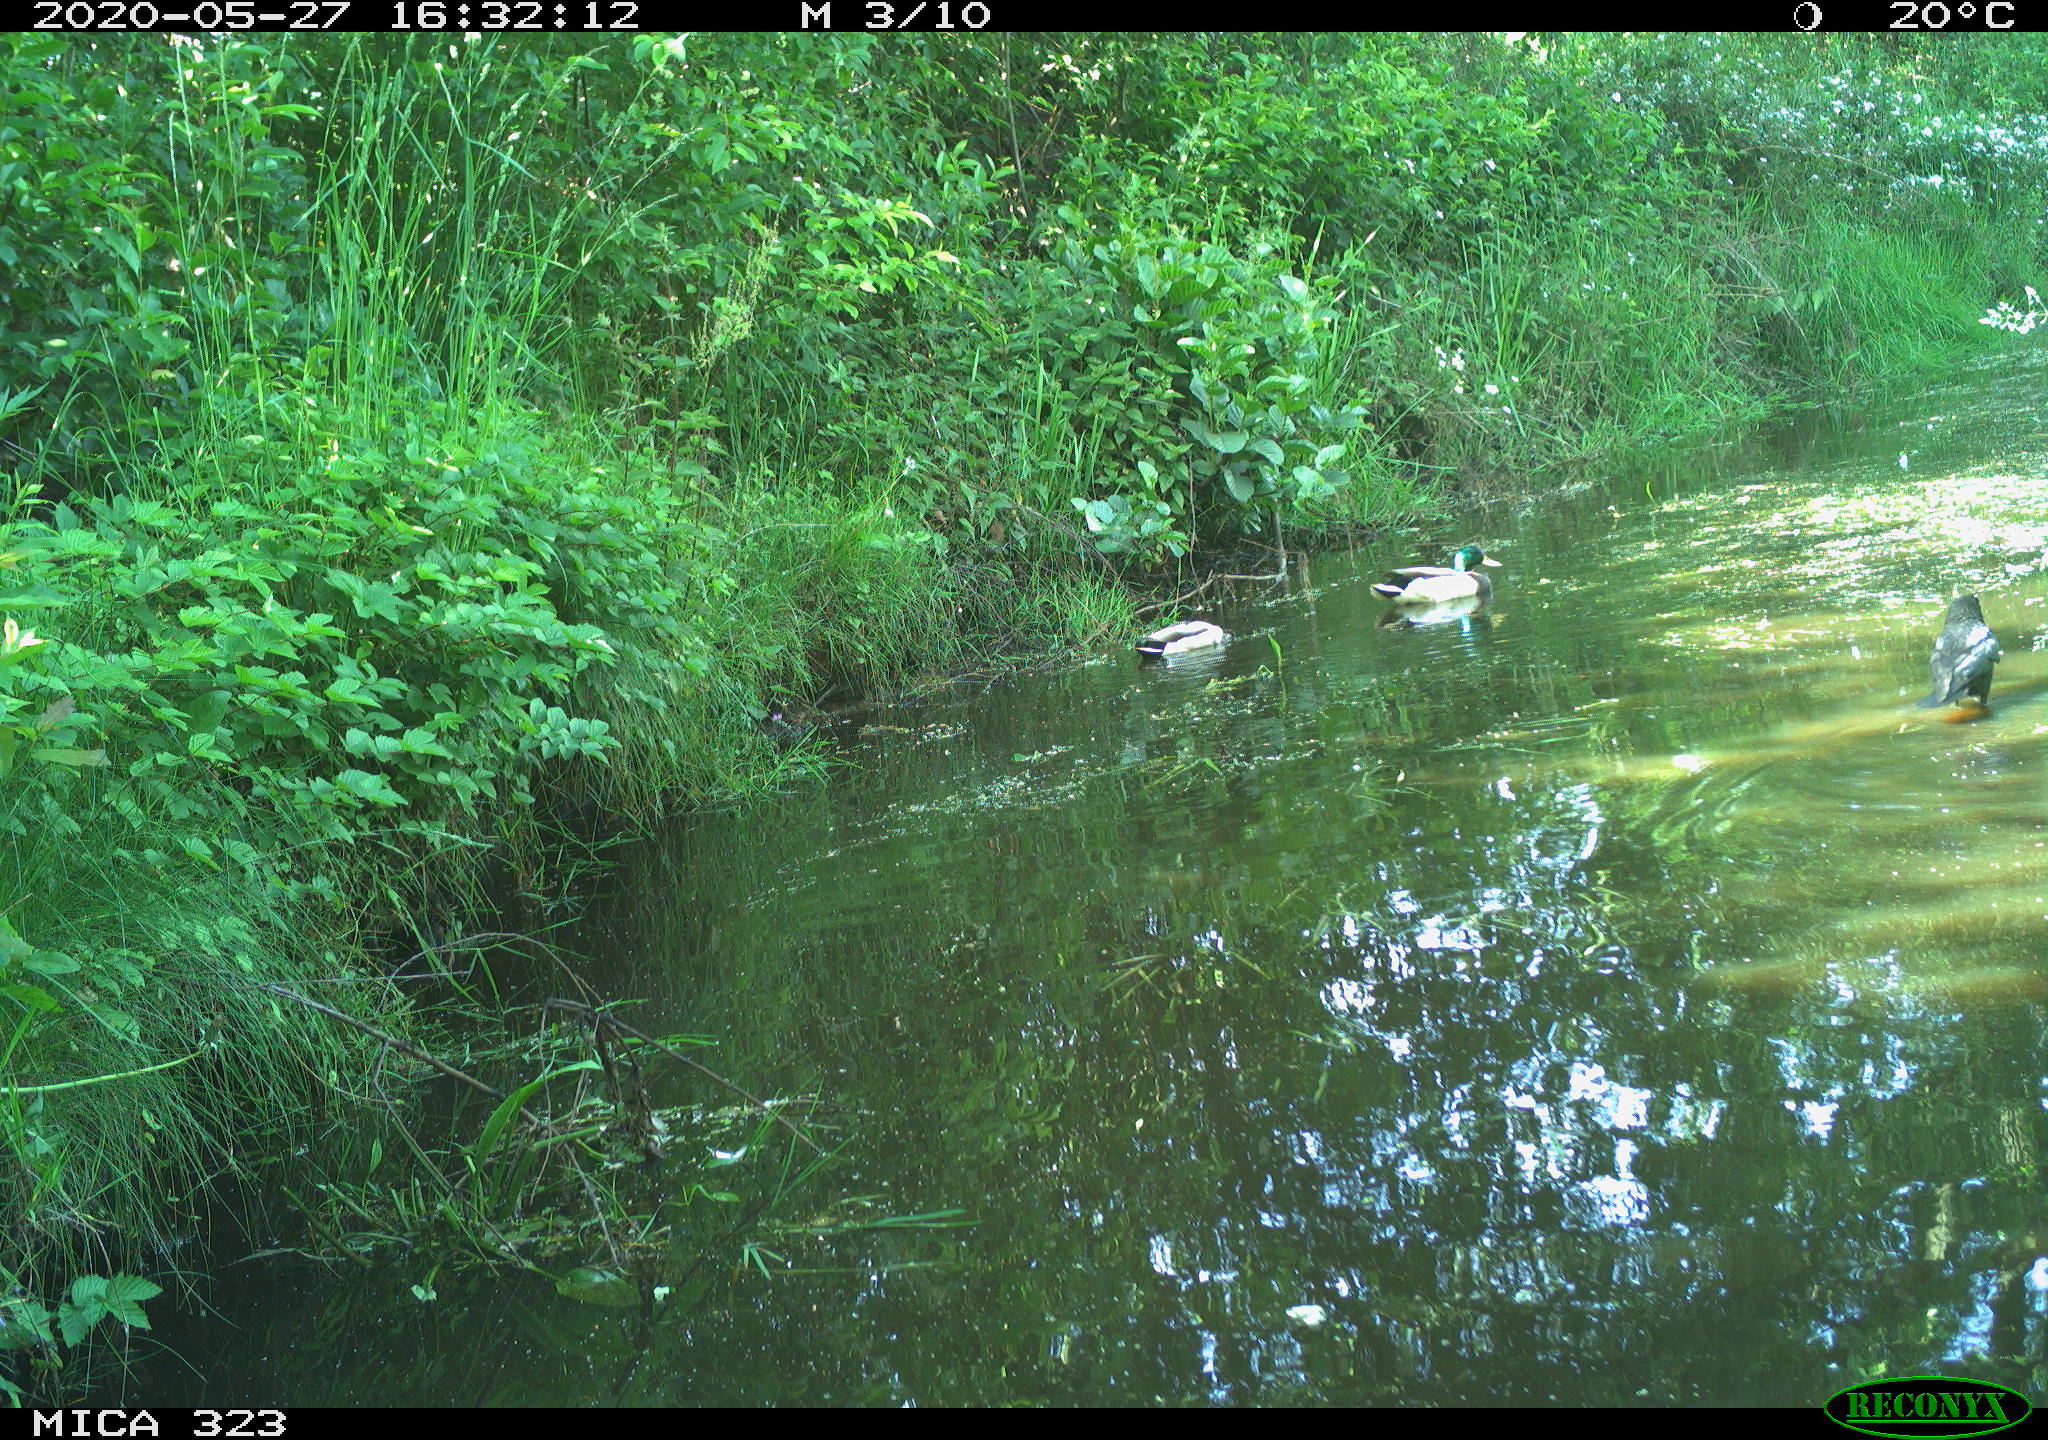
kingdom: Animalia
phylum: Chordata
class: Aves
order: Anseriformes
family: Anatidae
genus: Anas
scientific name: Anas platyrhynchos
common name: Mallard
